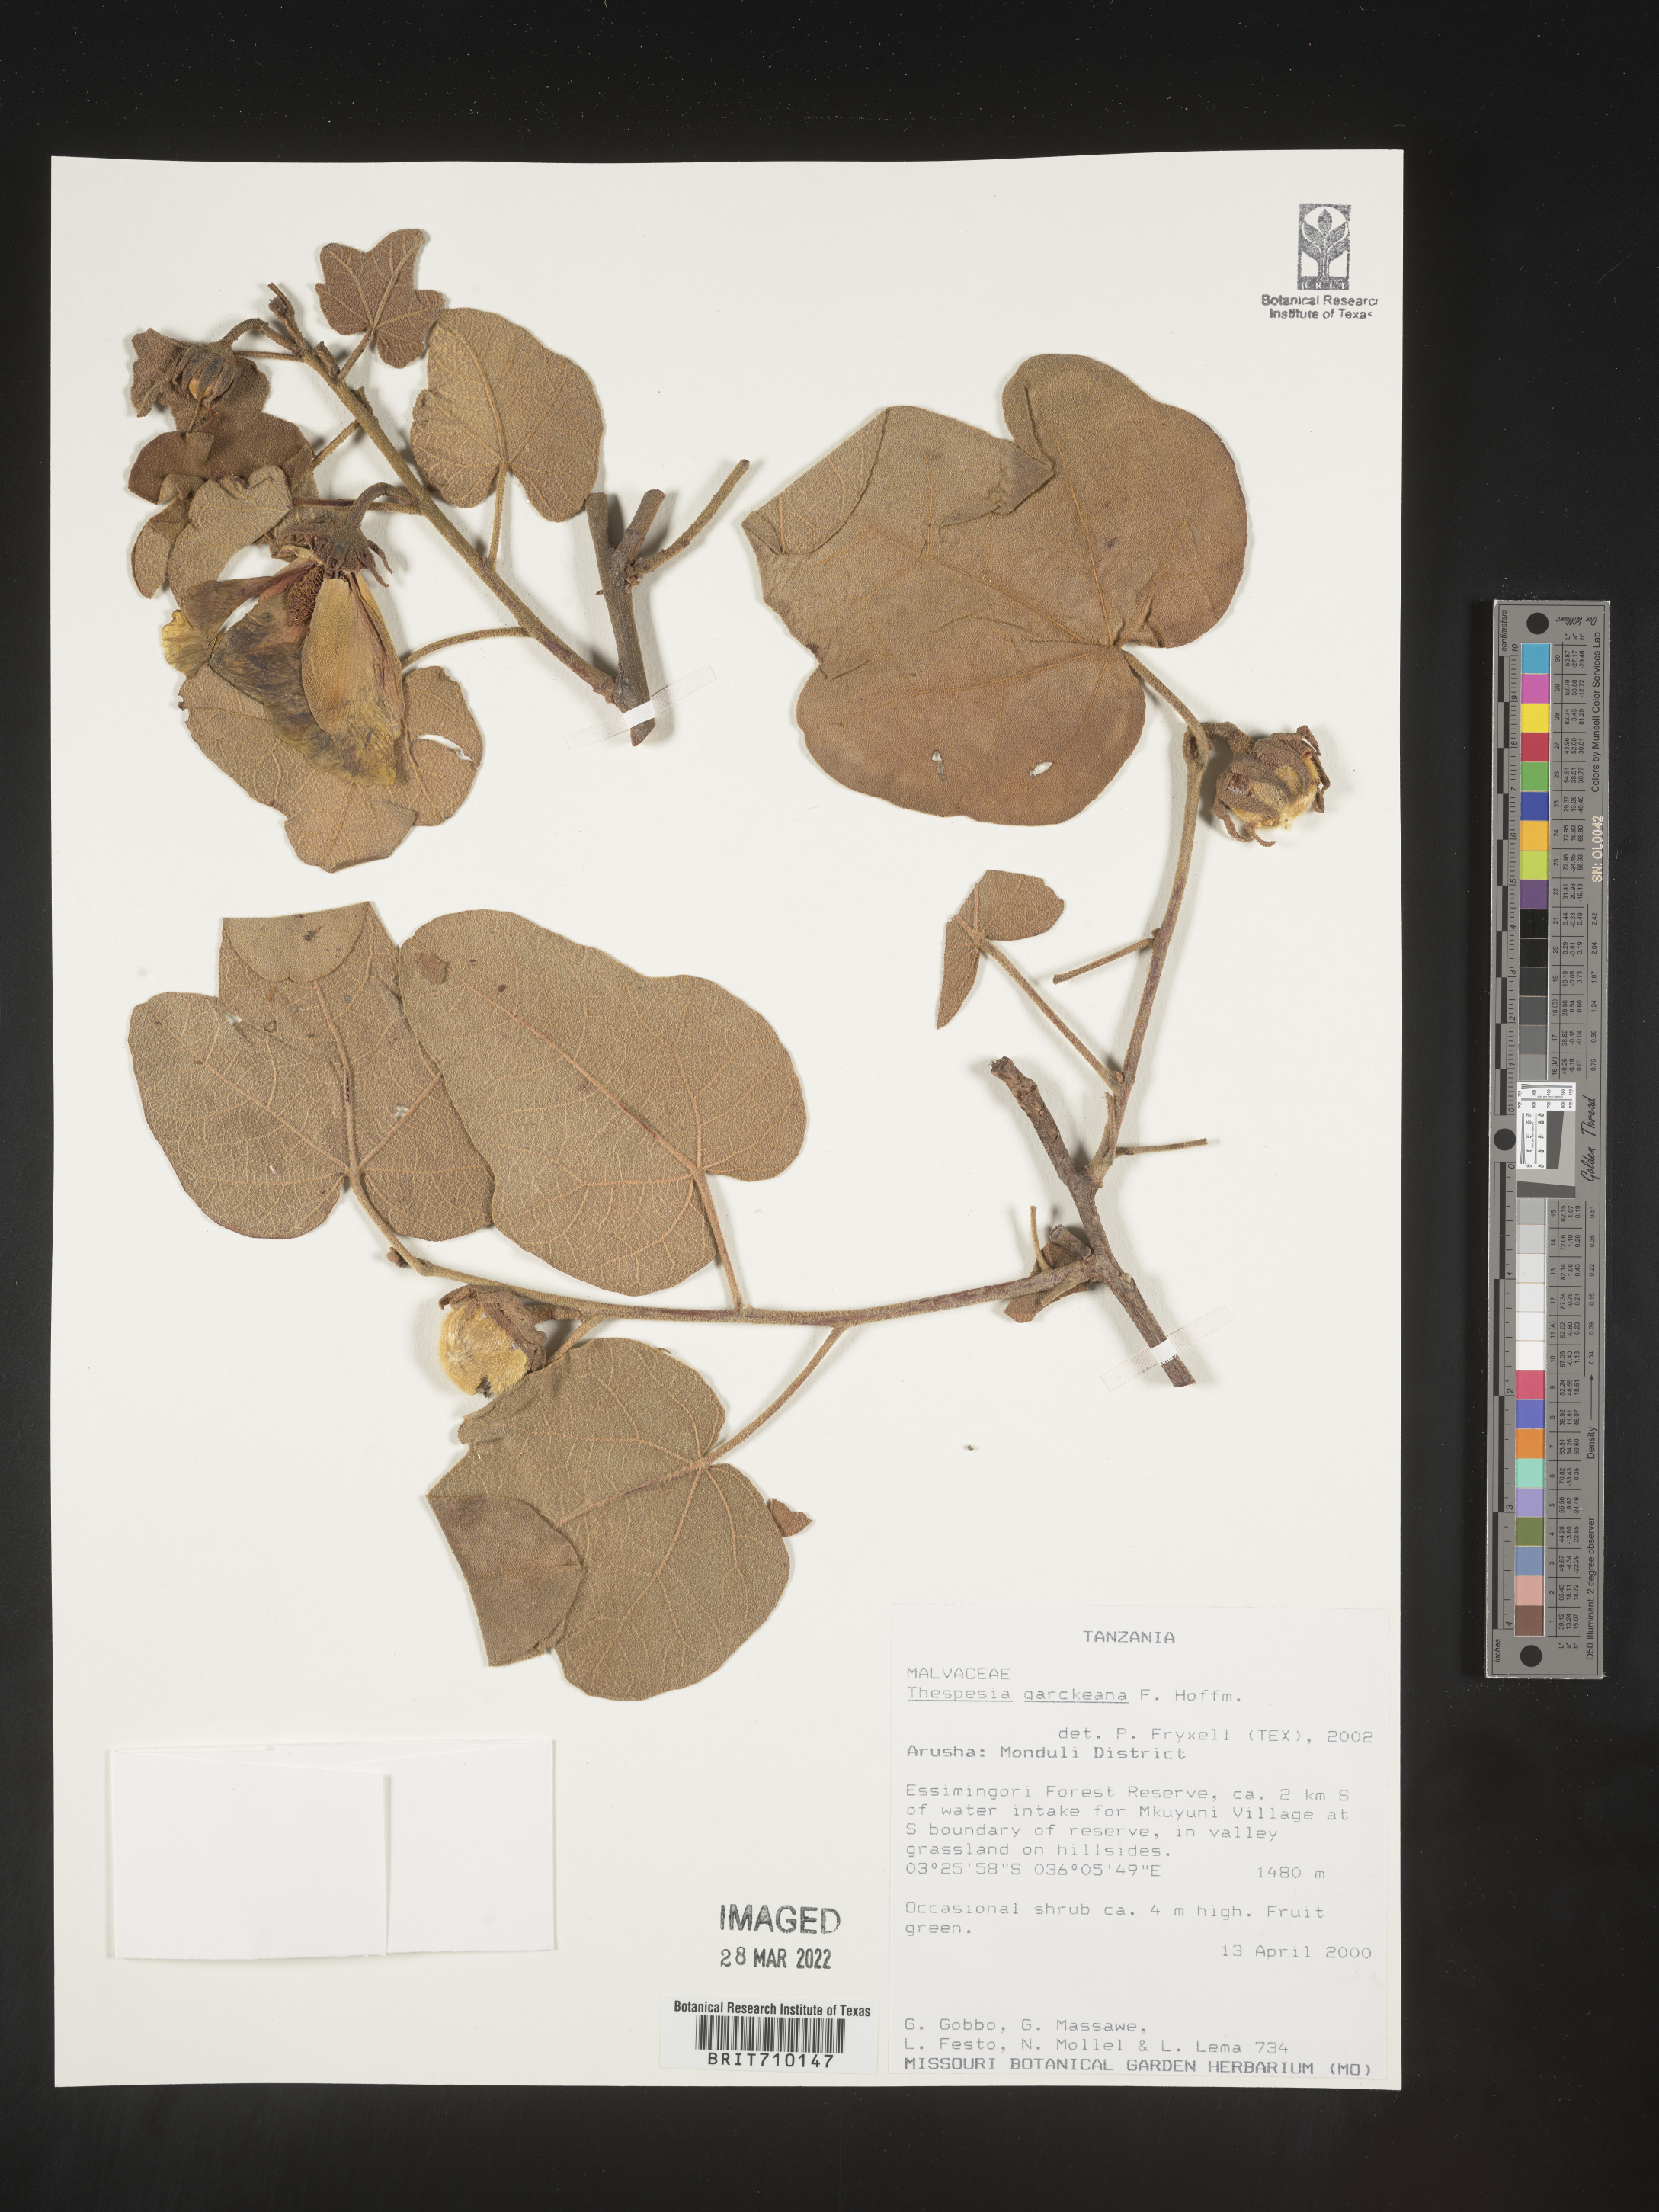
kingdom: Plantae
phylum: Tracheophyta
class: Magnoliopsida
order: Malvales
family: Malvaceae
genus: Thespesia
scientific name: Thespesia
